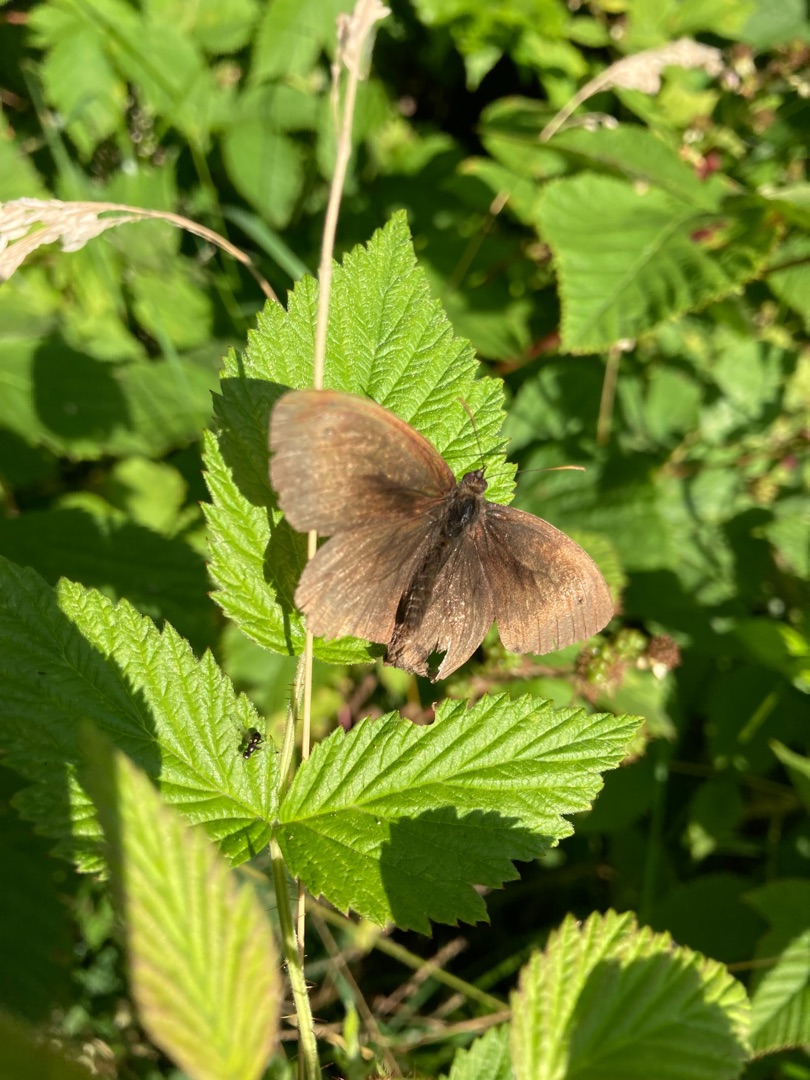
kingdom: Animalia
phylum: Arthropoda
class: Insecta
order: Lepidoptera
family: Nymphalidae
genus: Maniola
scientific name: Maniola jurtina
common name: Græsrandøje
